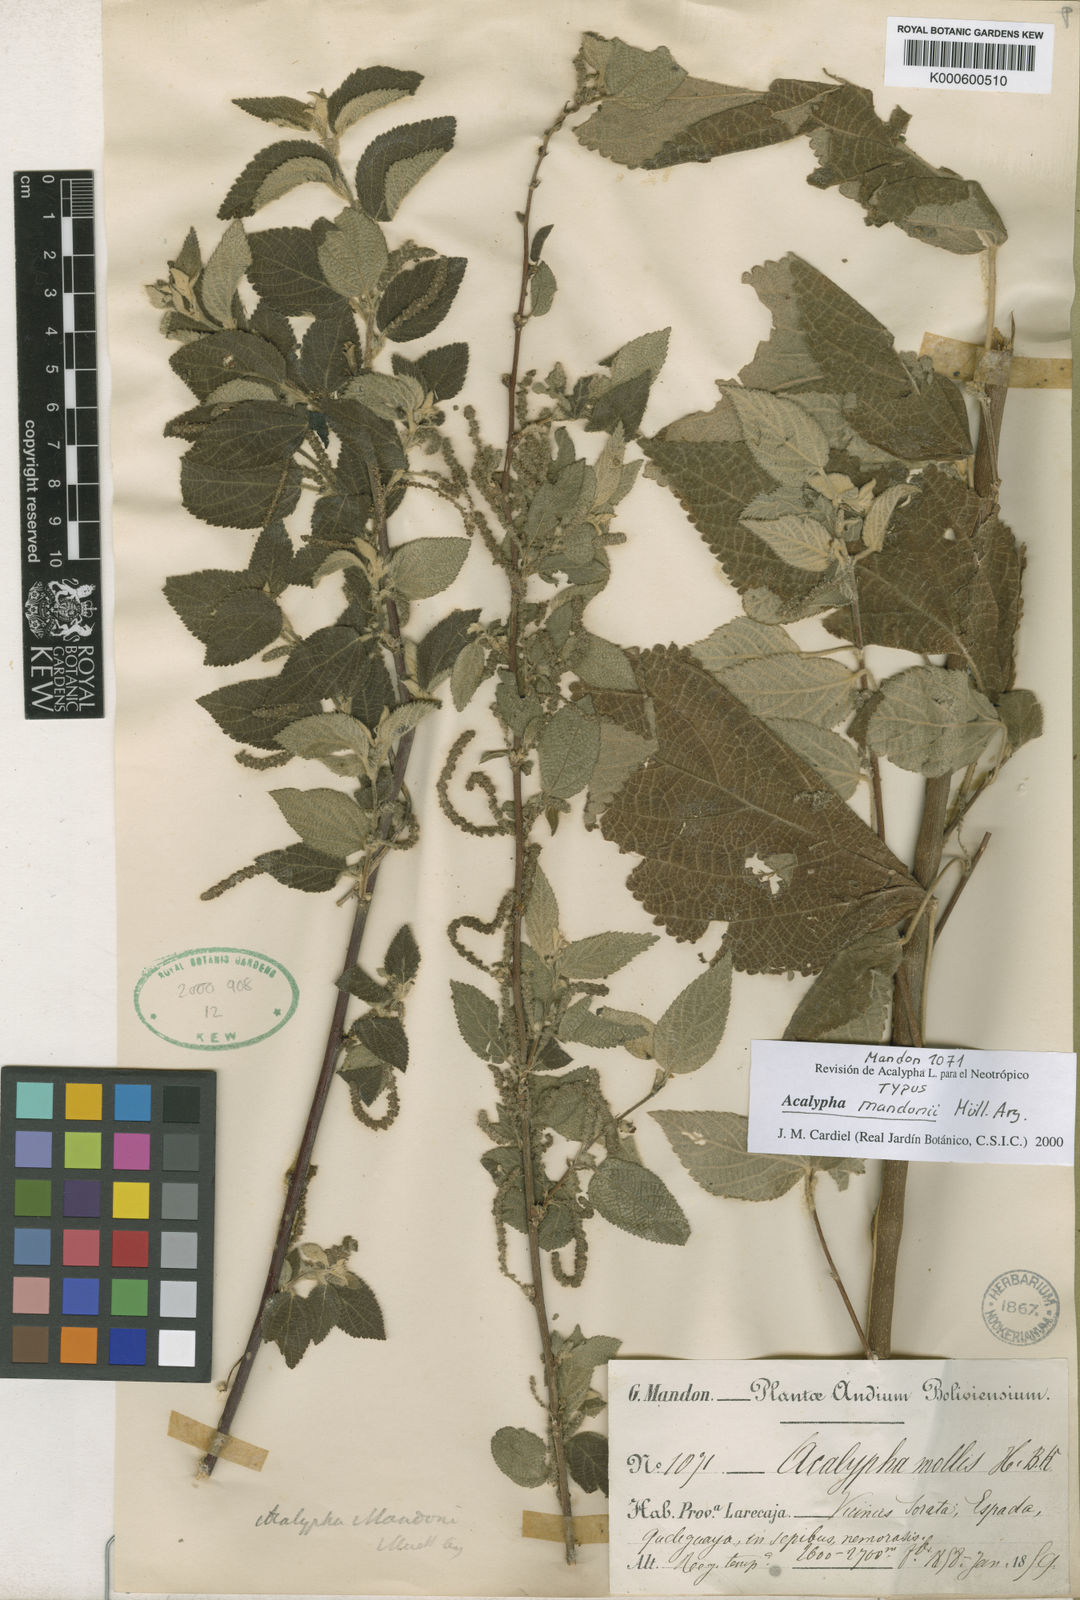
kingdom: Plantae
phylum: Tracheophyta
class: Magnoliopsida
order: Malpighiales
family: Euphorbiaceae
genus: Acalypha
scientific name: Acalypha
